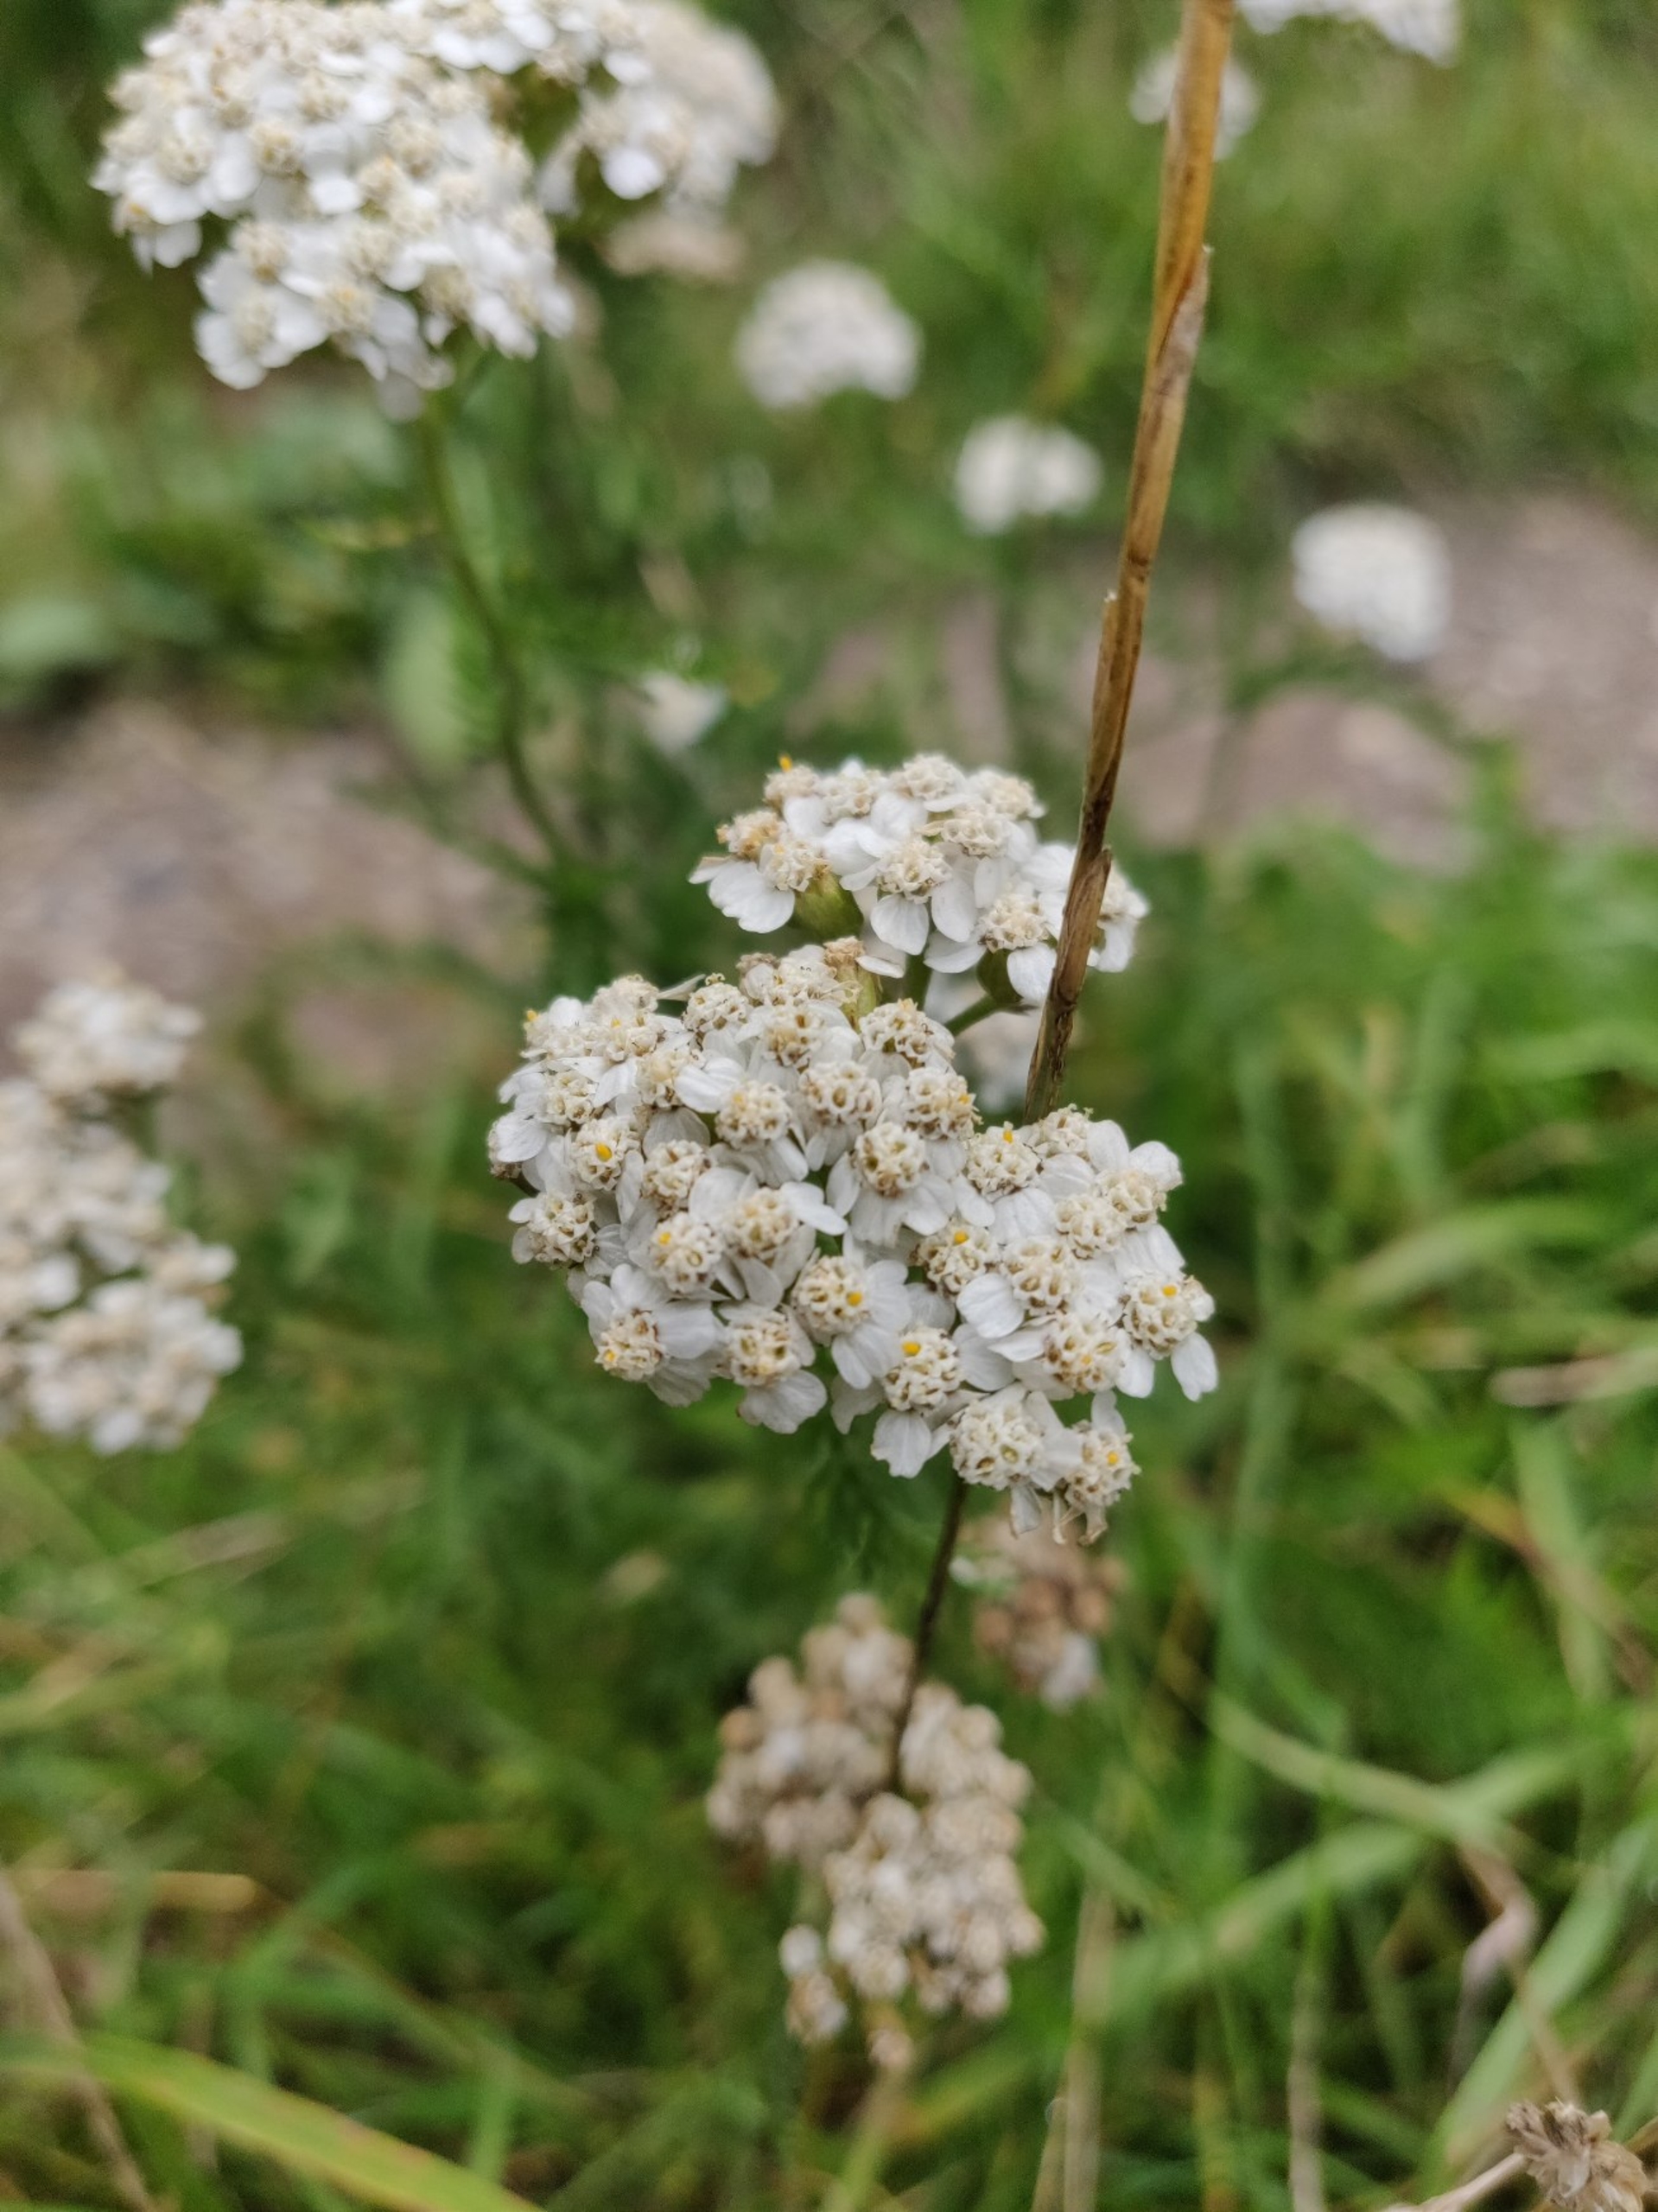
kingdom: Plantae
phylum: Tracheophyta
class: Magnoliopsida
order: Asterales
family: Asteraceae
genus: Achillea
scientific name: Achillea millefolium
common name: Almindelig røllike
